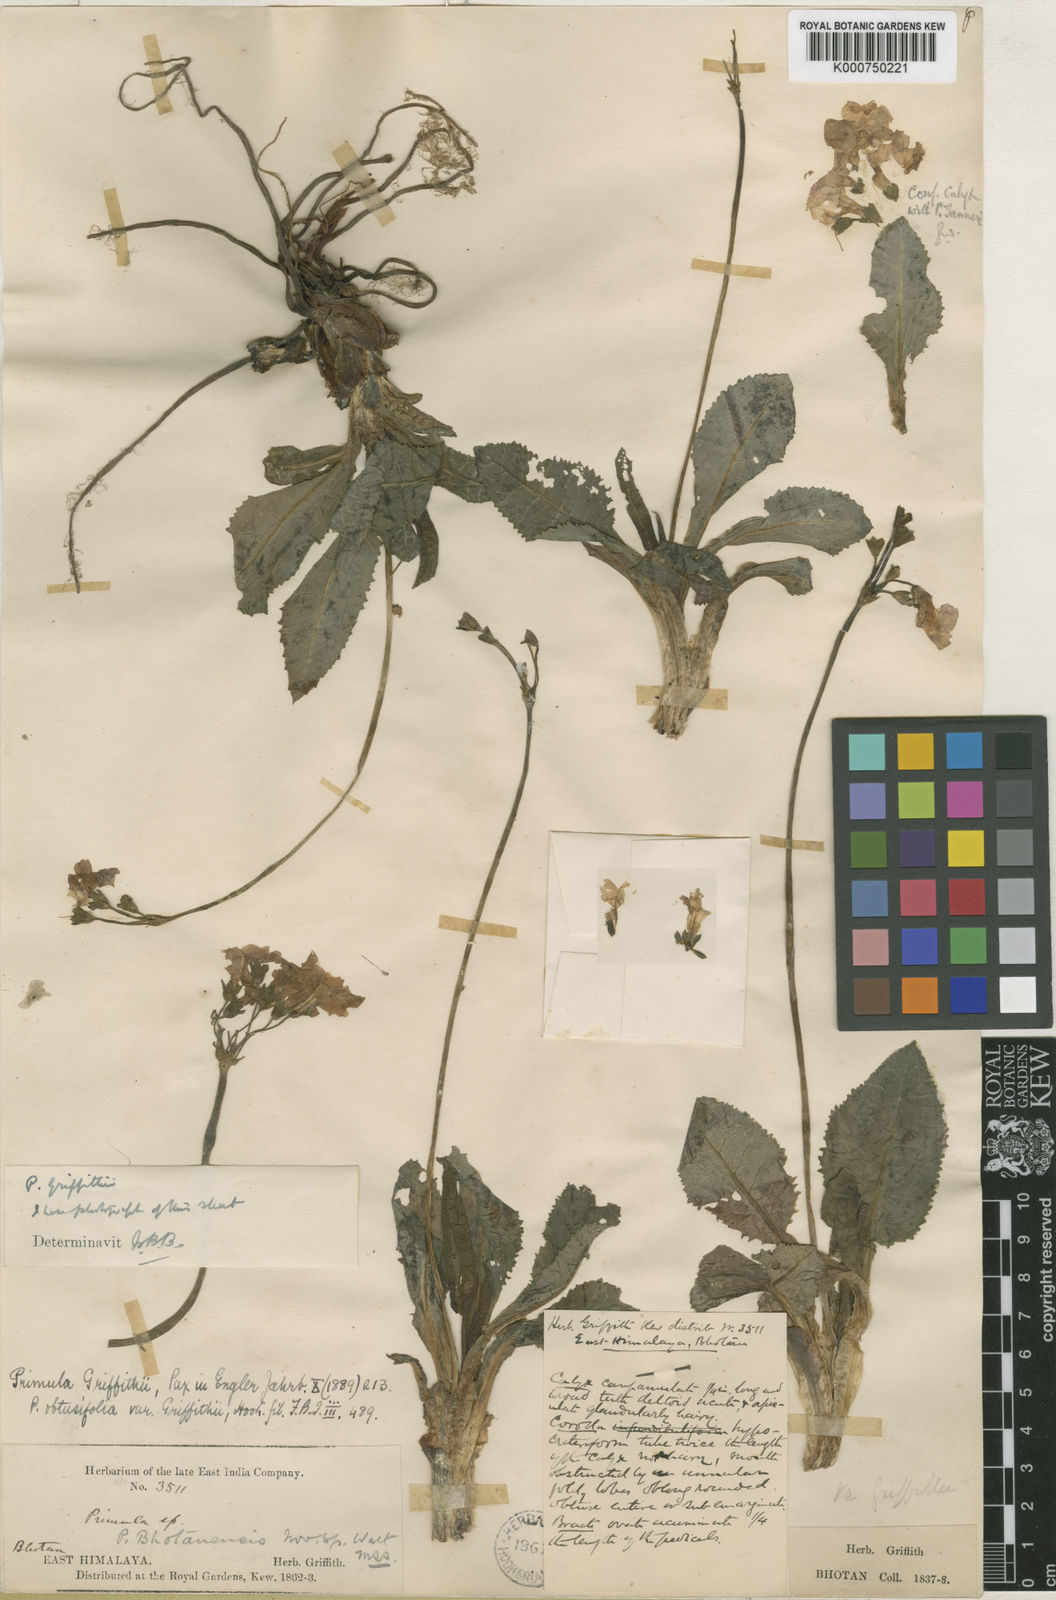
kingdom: Plantae
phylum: Tracheophyta
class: Magnoliopsida
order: Ericales
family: Primulaceae
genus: Primula
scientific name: Primula griffithii
